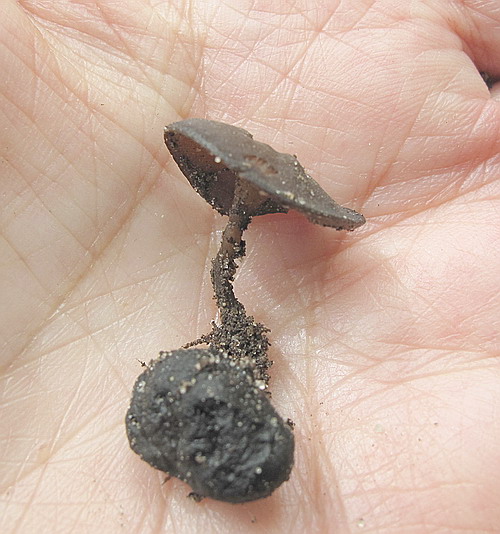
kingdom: Fungi
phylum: Ascomycota
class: Leotiomycetes
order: Helotiales
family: Sclerotiniaceae
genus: Dumontinia
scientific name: Dumontinia tuberosa
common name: anemone-knoldskive
